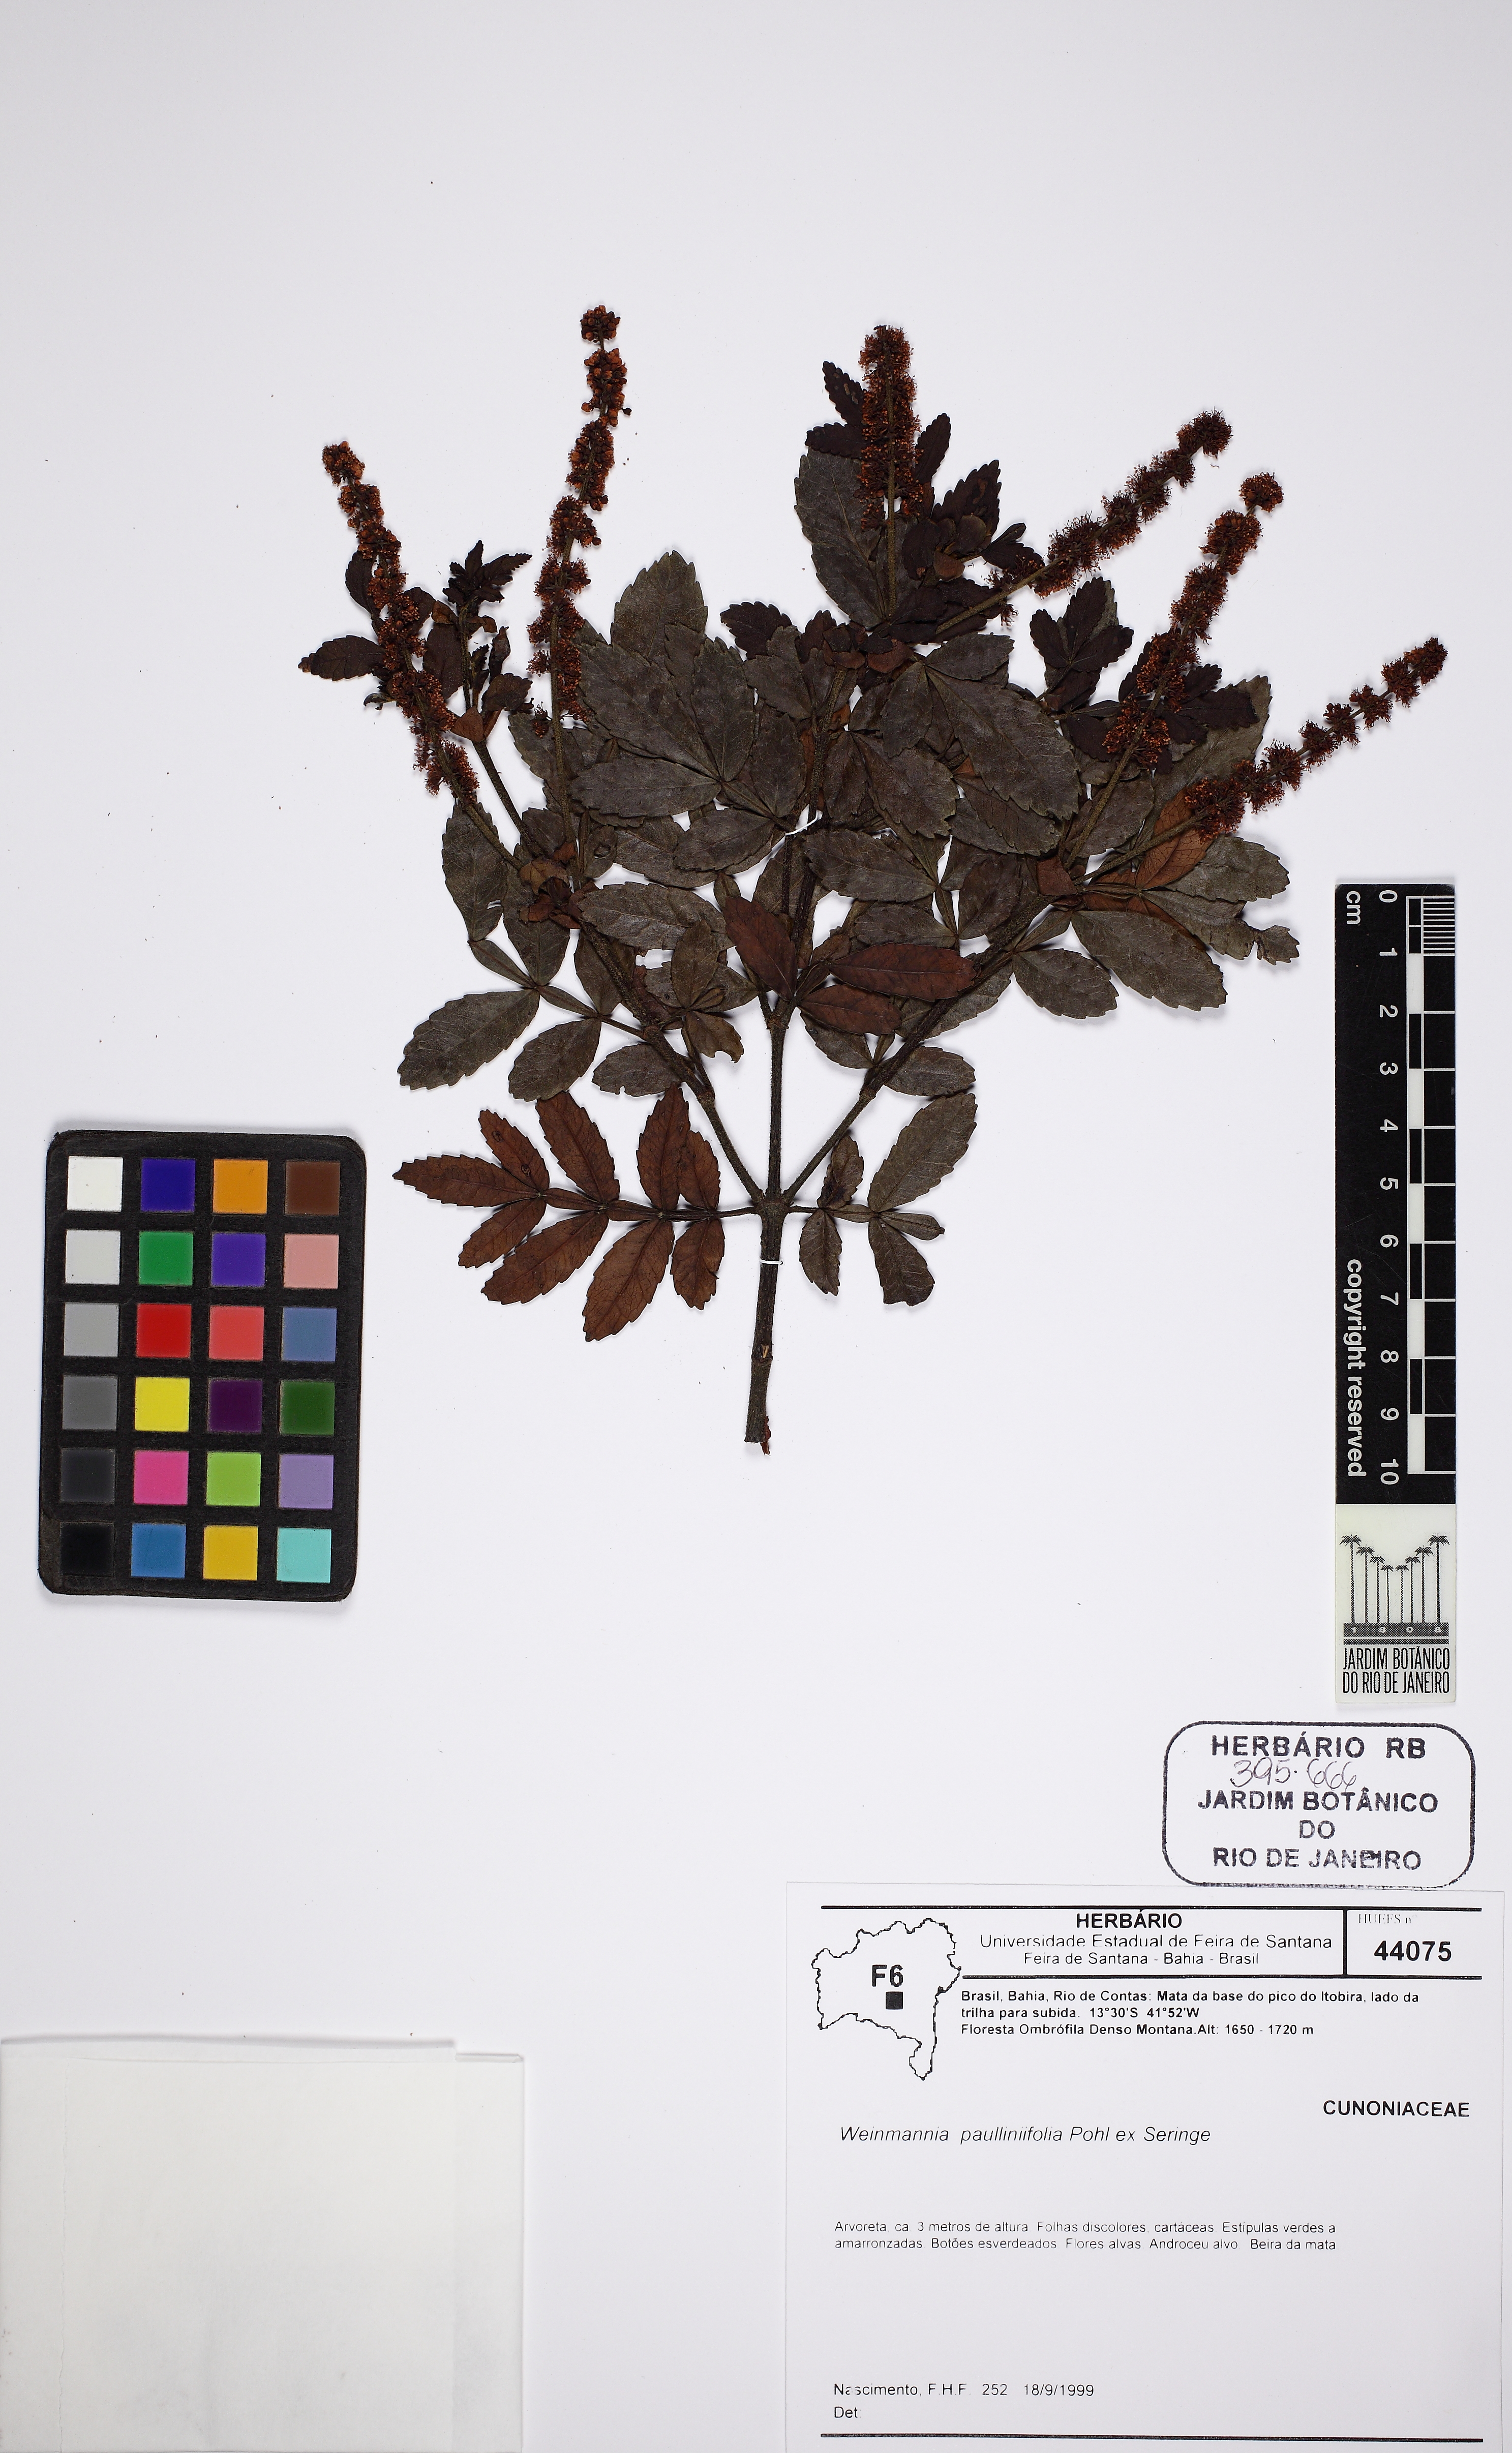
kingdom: Plantae
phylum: Tracheophyta
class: Magnoliopsida
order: Oxalidales
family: Cunoniaceae
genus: Weinmannia
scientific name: Weinmannia paullinifolia
